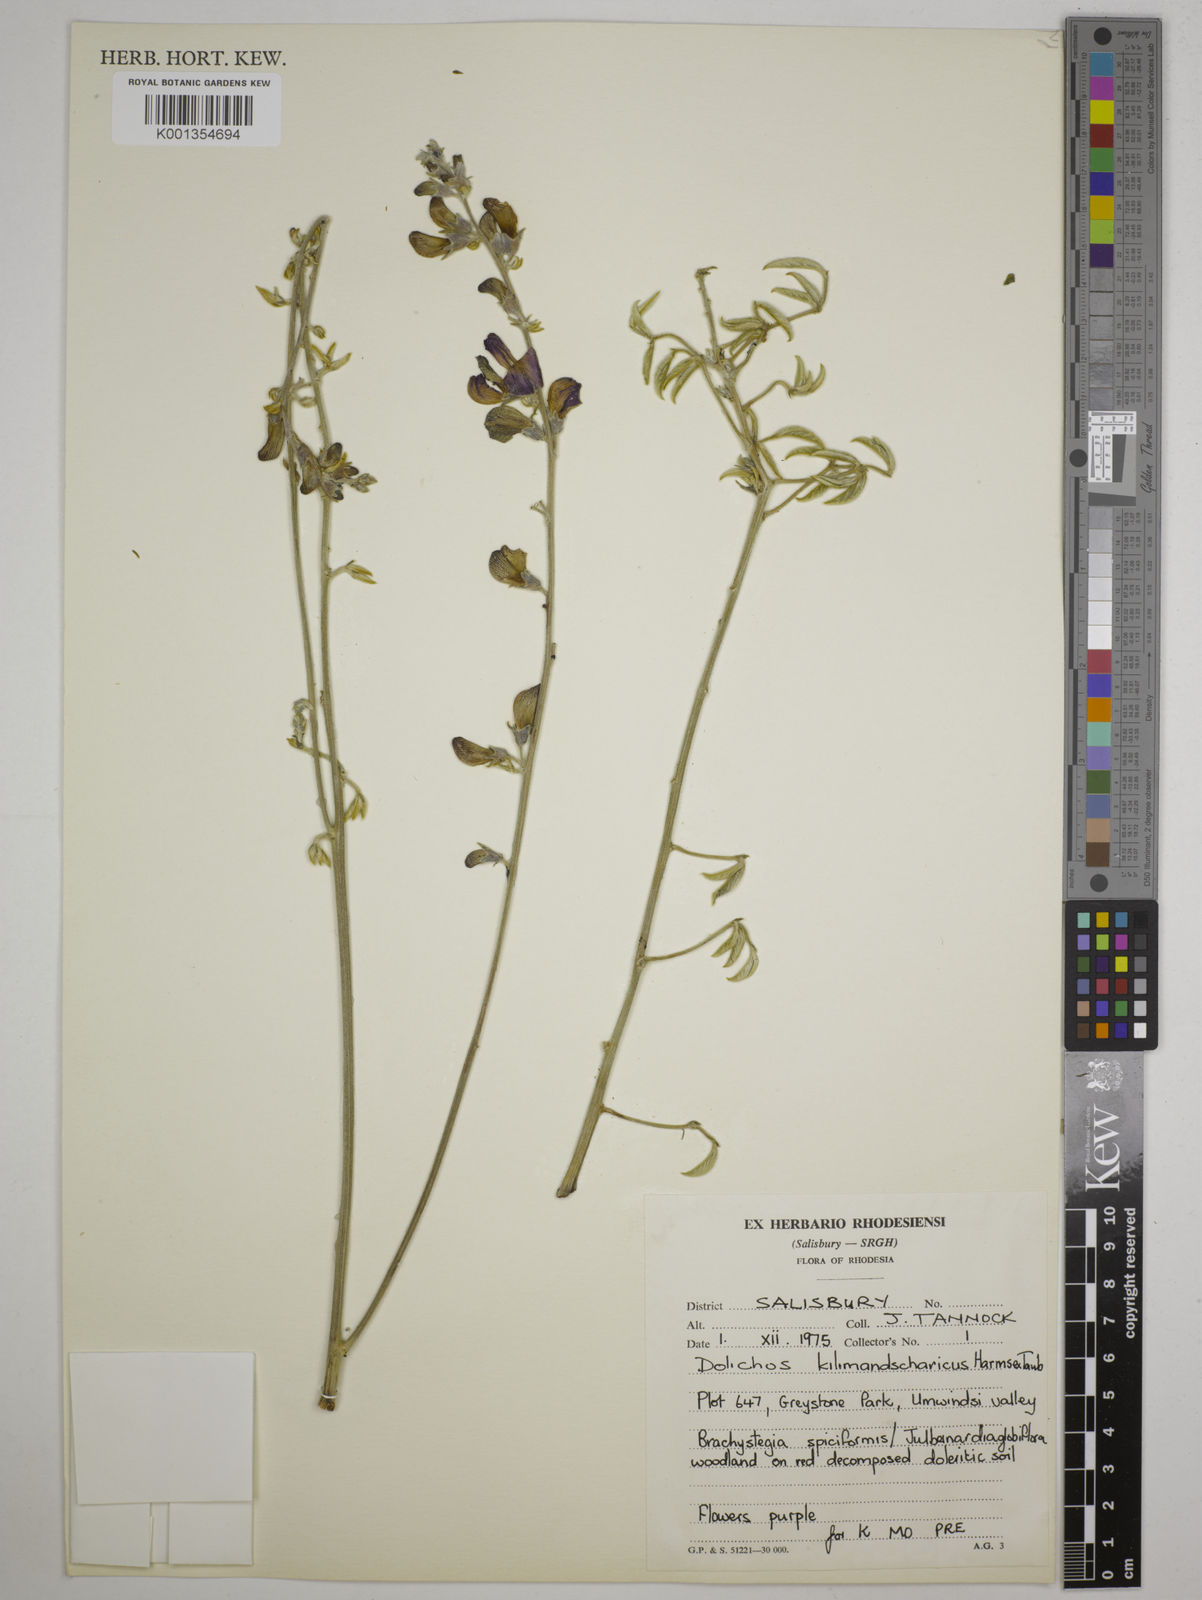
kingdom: Plantae
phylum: Tracheophyta
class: Magnoliopsida
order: Fabales
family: Fabaceae
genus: Dolichos
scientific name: Dolichos kilimandscharicus
